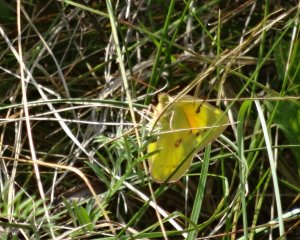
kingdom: Animalia
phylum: Arthropoda
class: Insecta
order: Lepidoptera
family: Pieridae
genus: Colias
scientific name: Colias eurytheme
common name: Orange Sulphur
